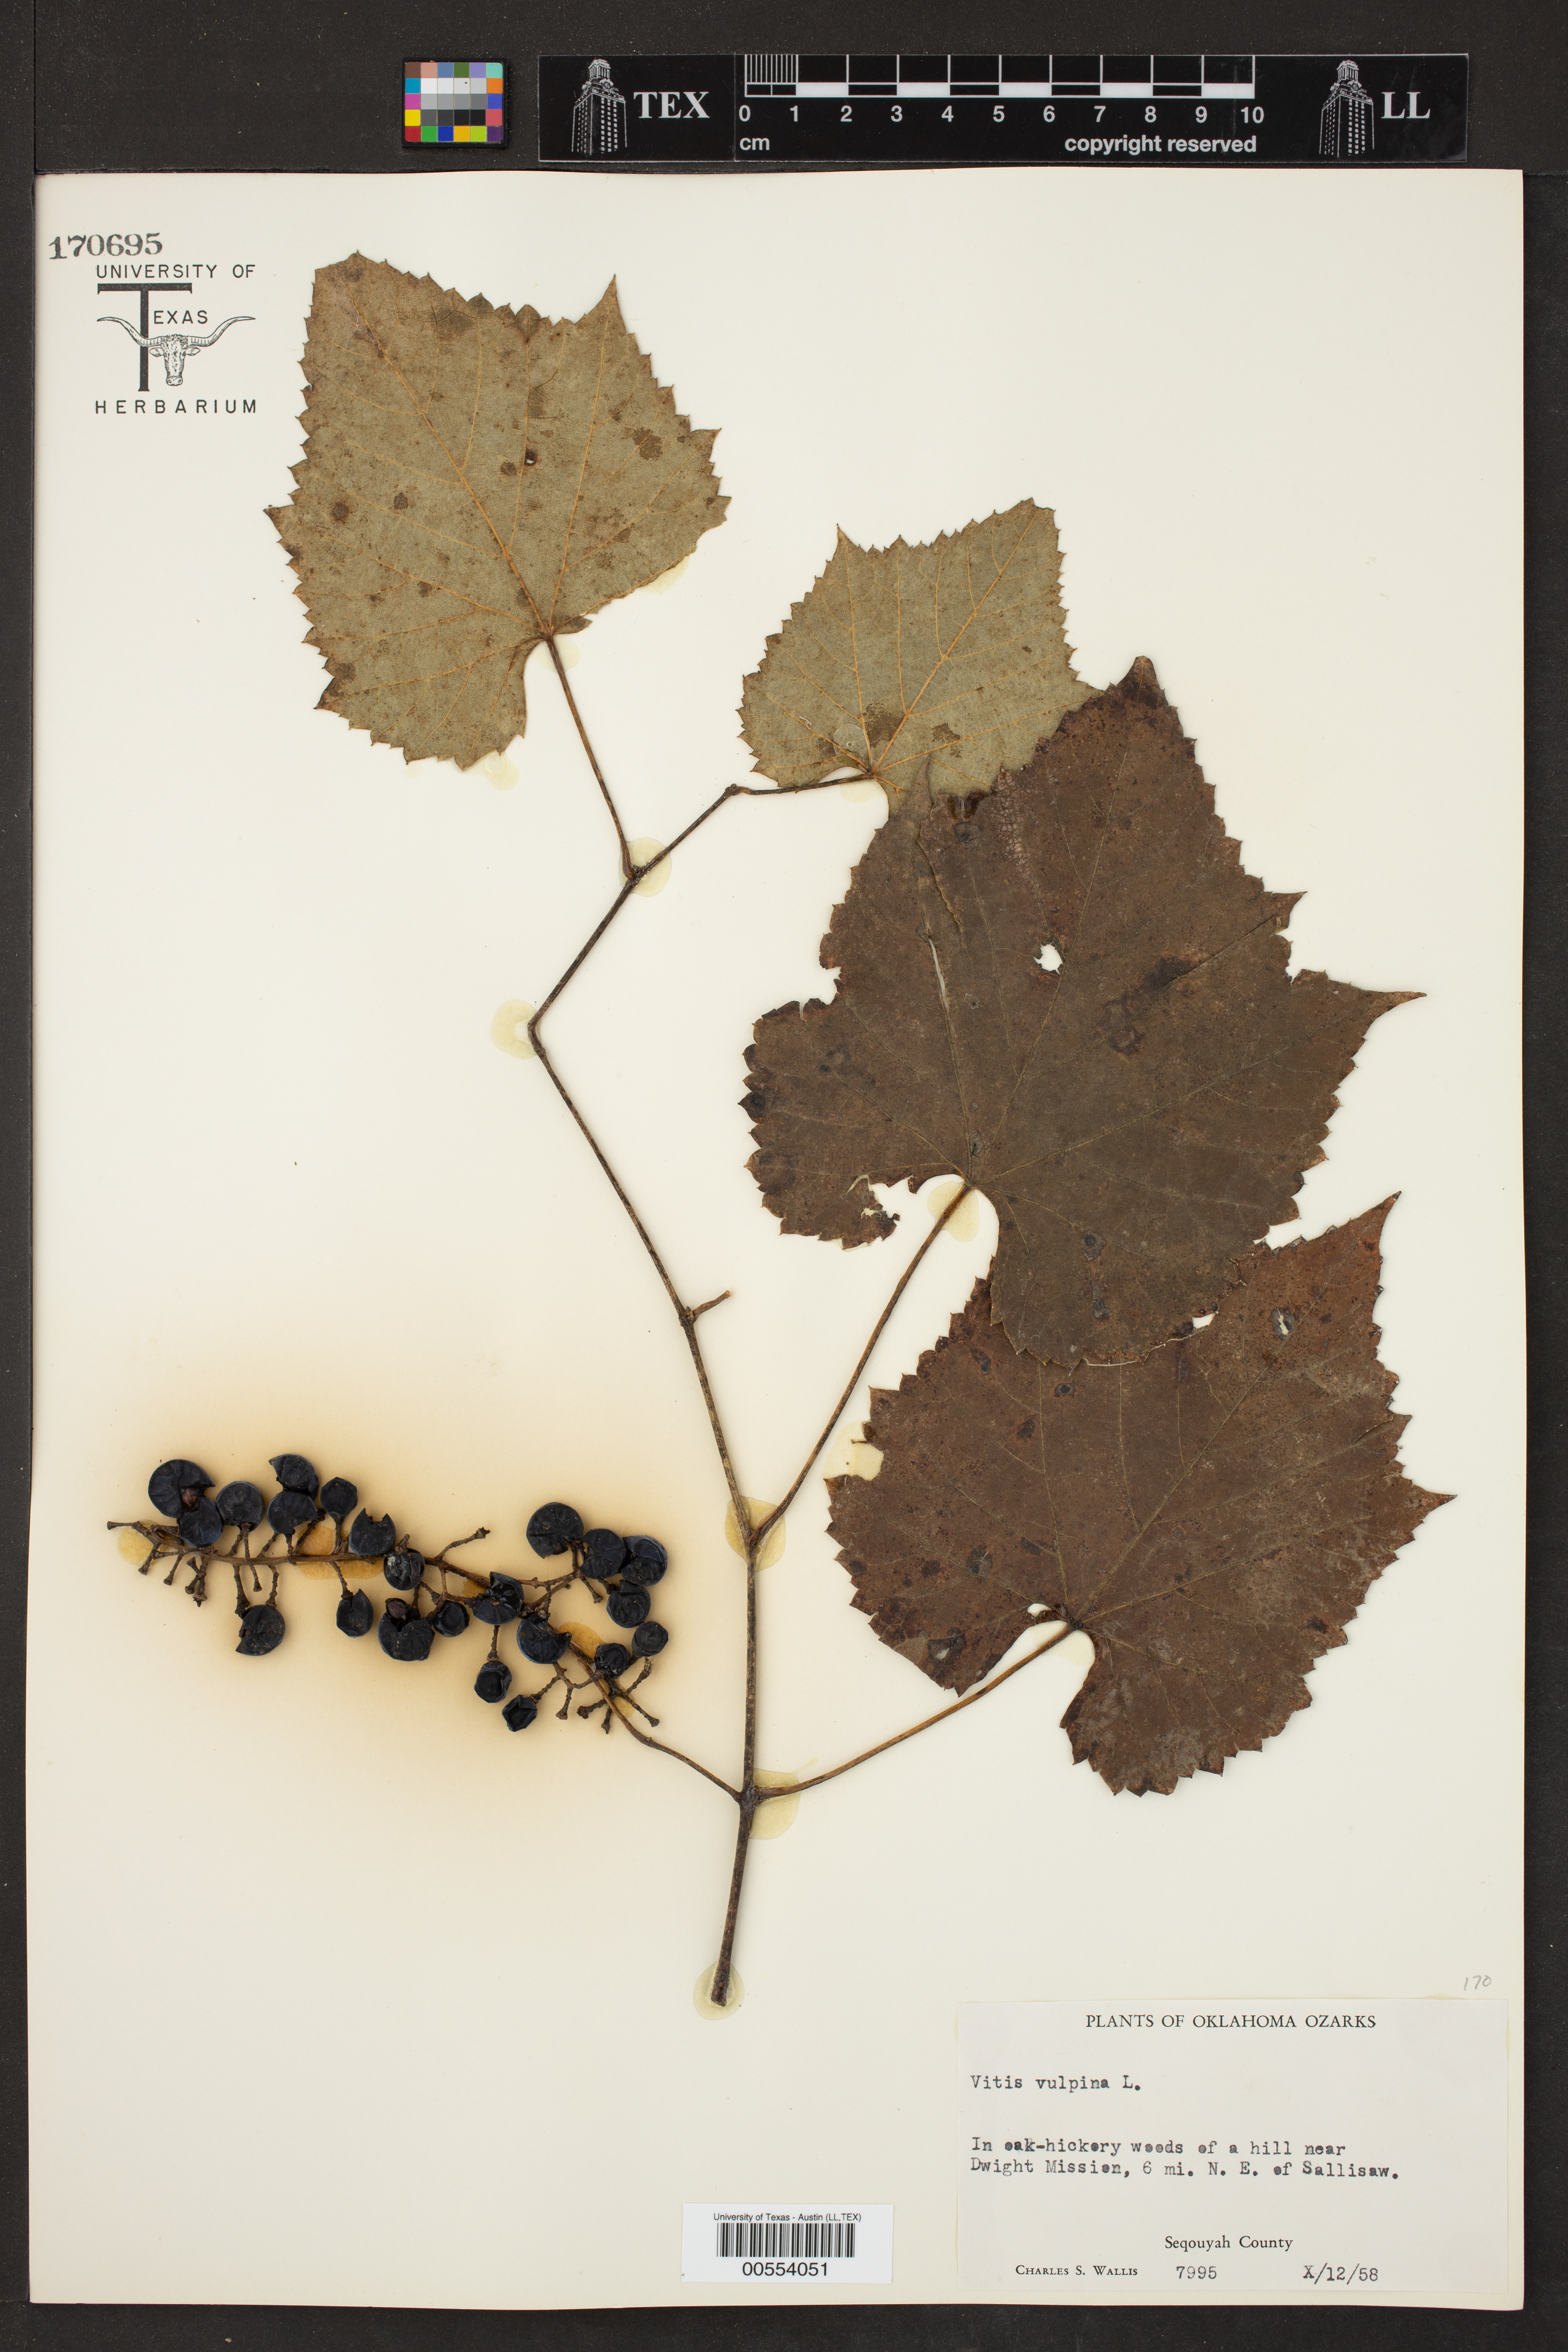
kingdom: Plantae
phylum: Tracheophyta
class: Magnoliopsida
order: Vitales
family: Vitaceae
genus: Vitis
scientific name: Vitis vulpina
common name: Frost grape
